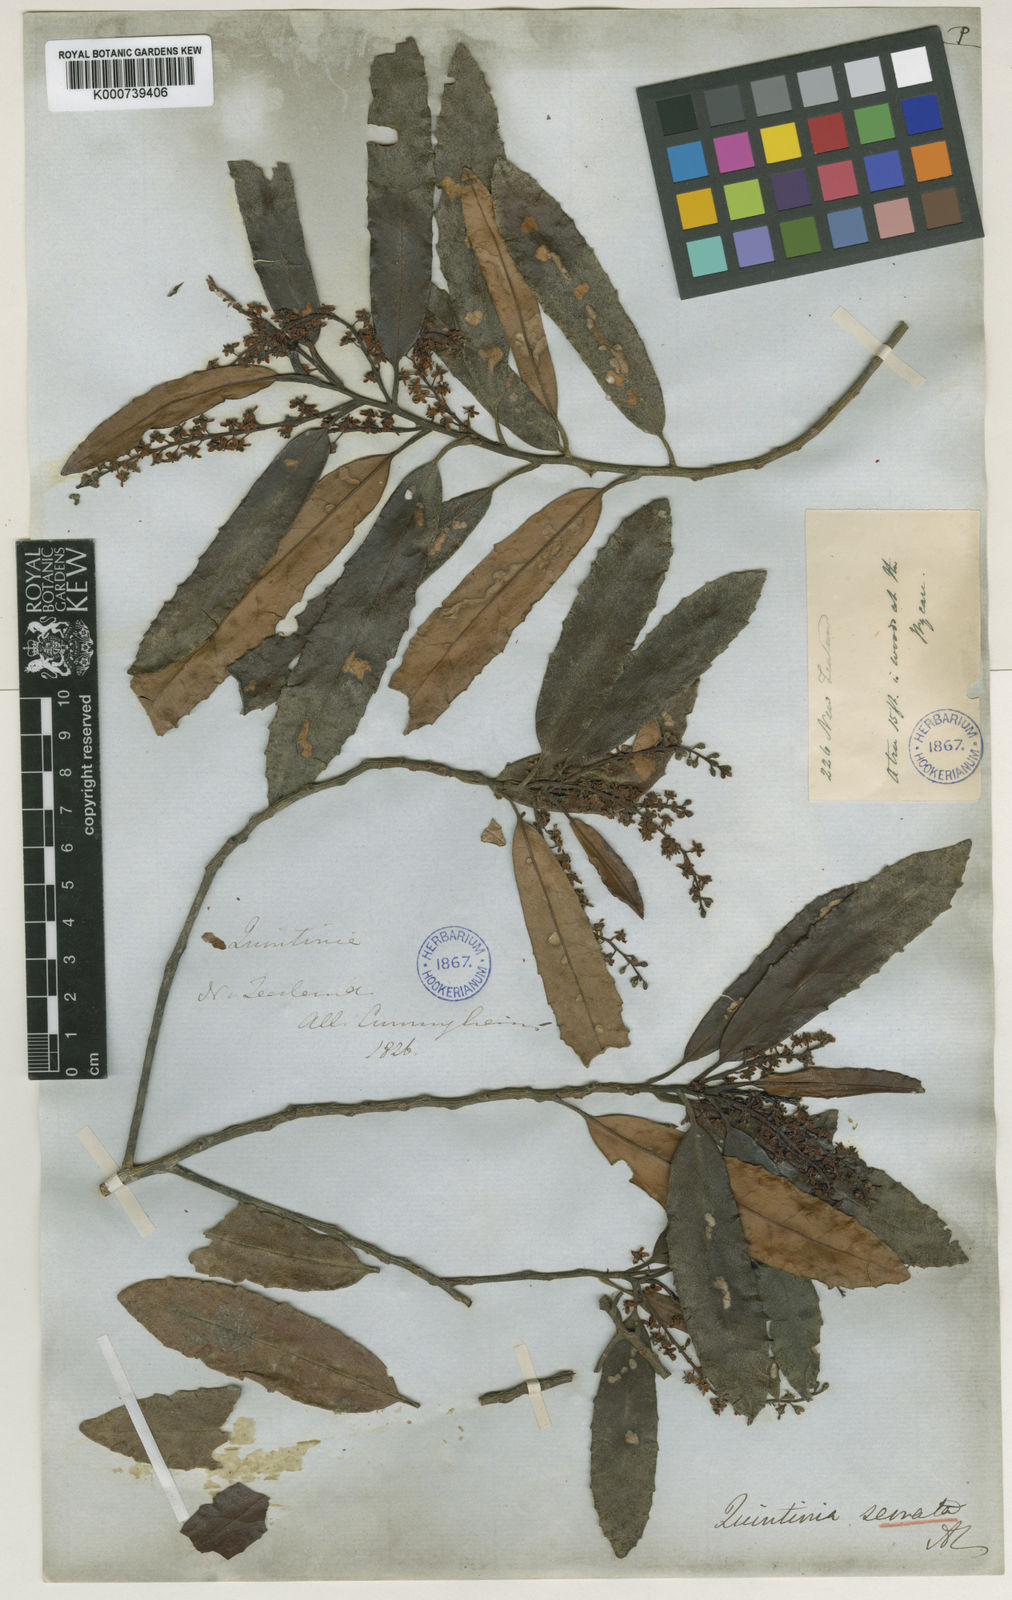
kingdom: Plantae
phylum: Tracheophyta
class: Magnoliopsida
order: Paracryphiales
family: Paracryphiaceae
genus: Quintinia
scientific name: Quintinia serrata
